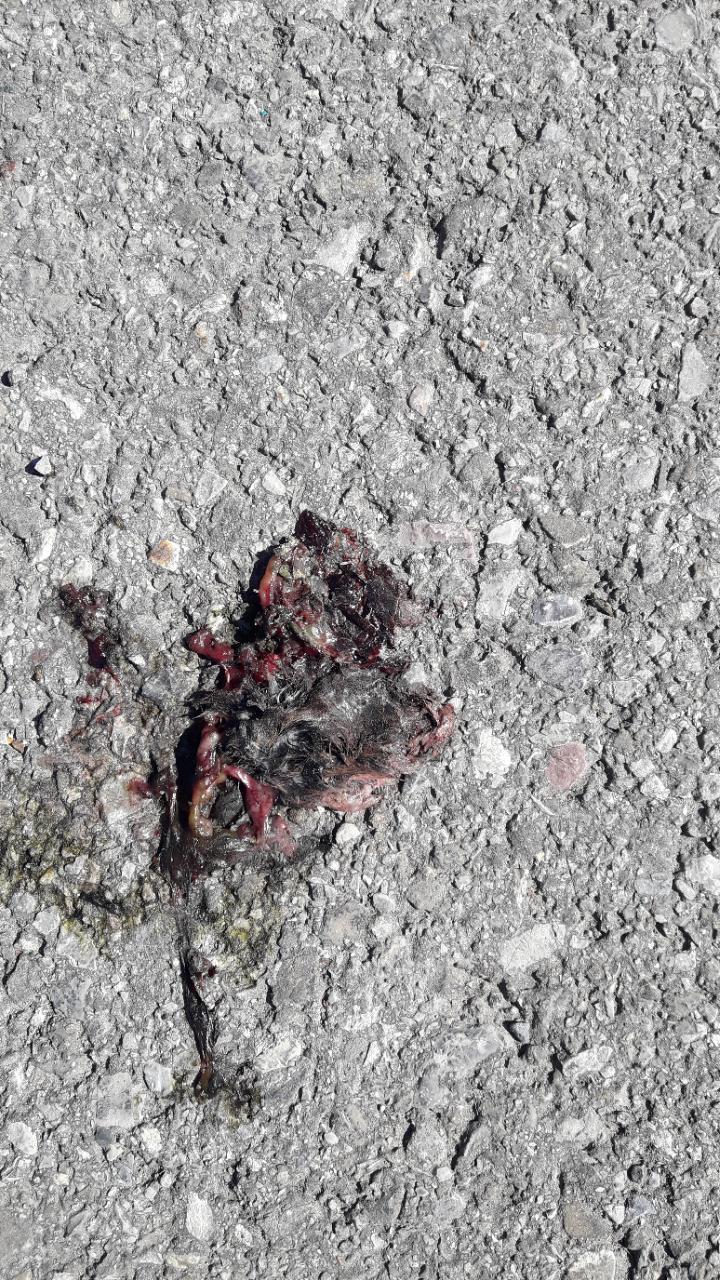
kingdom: Animalia
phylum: Chordata
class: Mammalia
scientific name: Mammalia
